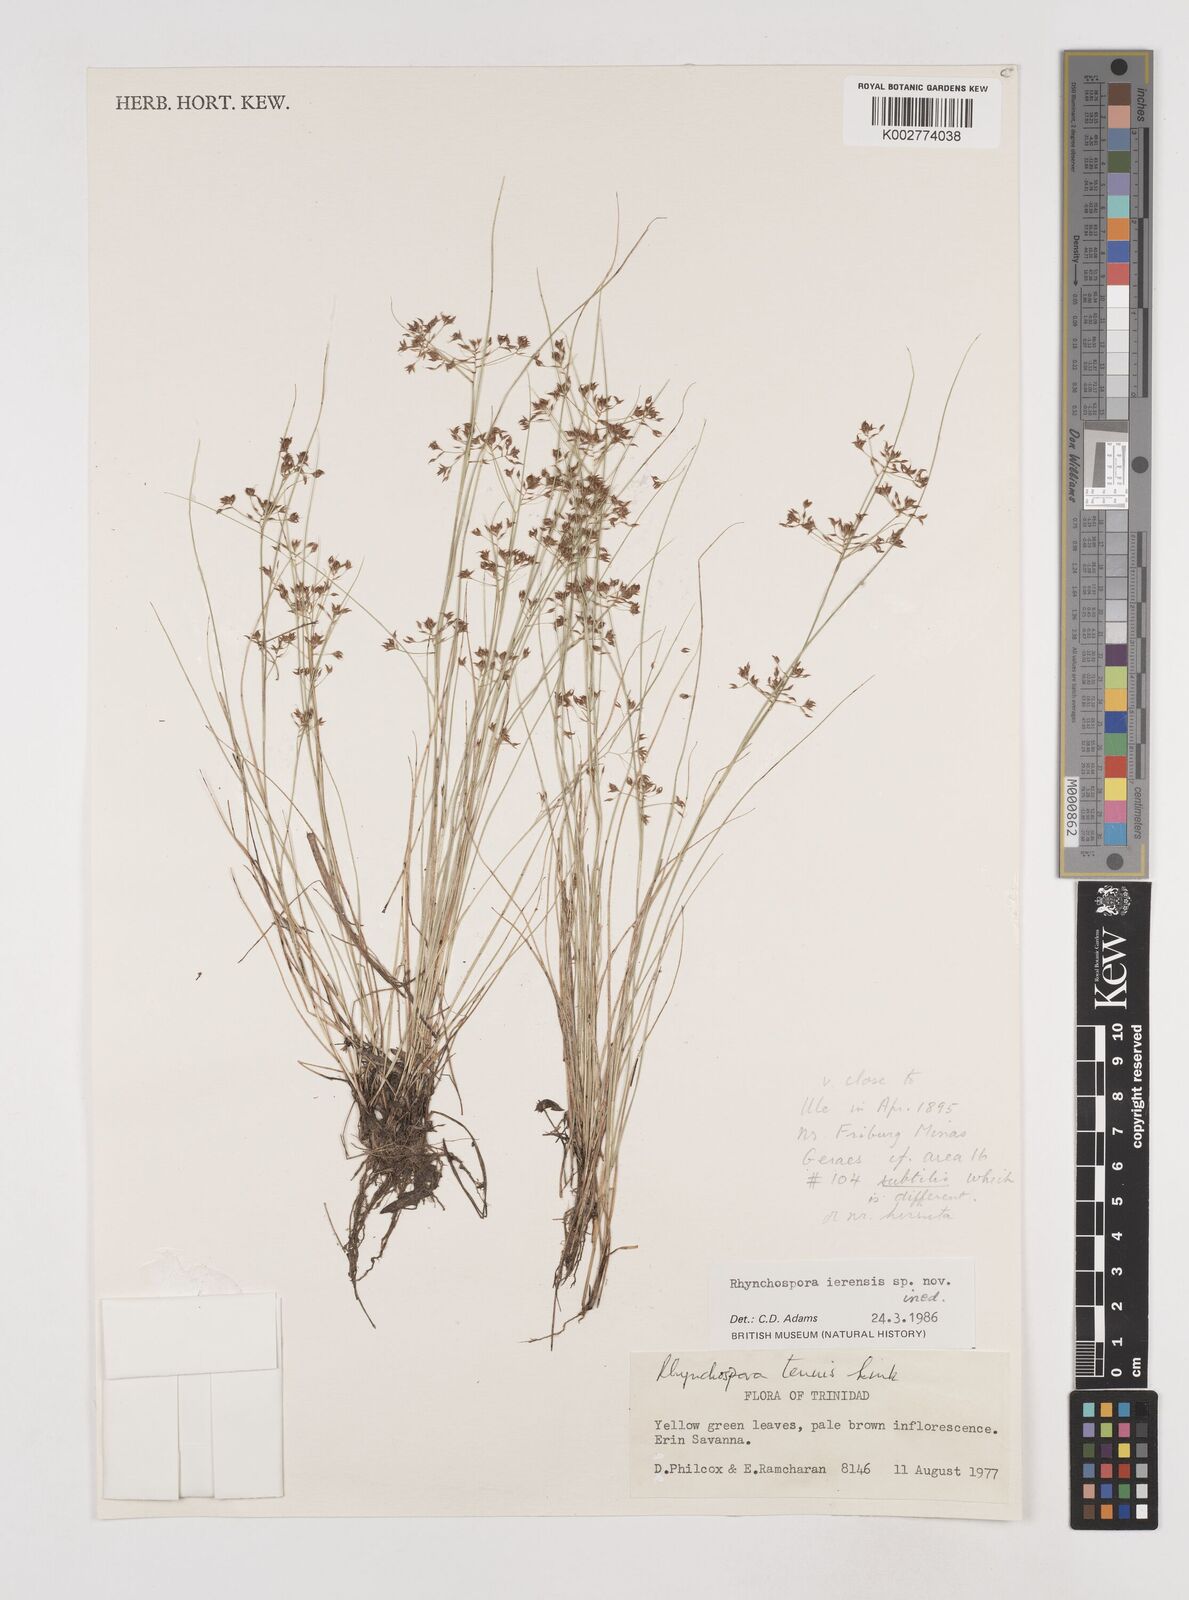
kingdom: Plantae
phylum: Tracheophyta
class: Liliopsida
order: Poales
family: Cyperaceae
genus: Rhynchospora
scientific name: Rhynchospora ierensis
